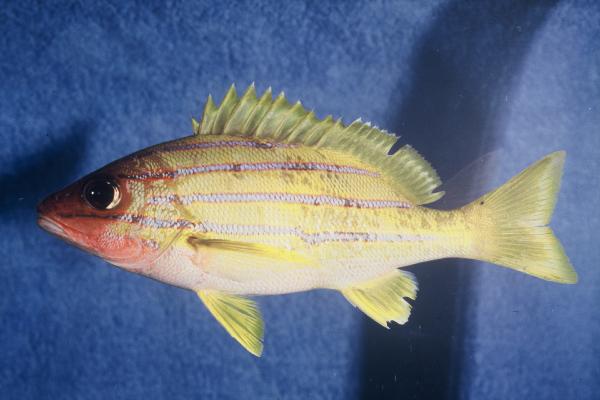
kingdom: Animalia
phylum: Chordata
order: Perciformes
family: Lutjanidae
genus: Lutjanus
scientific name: Lutjanus kasmira
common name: Common bluestripe snapper
